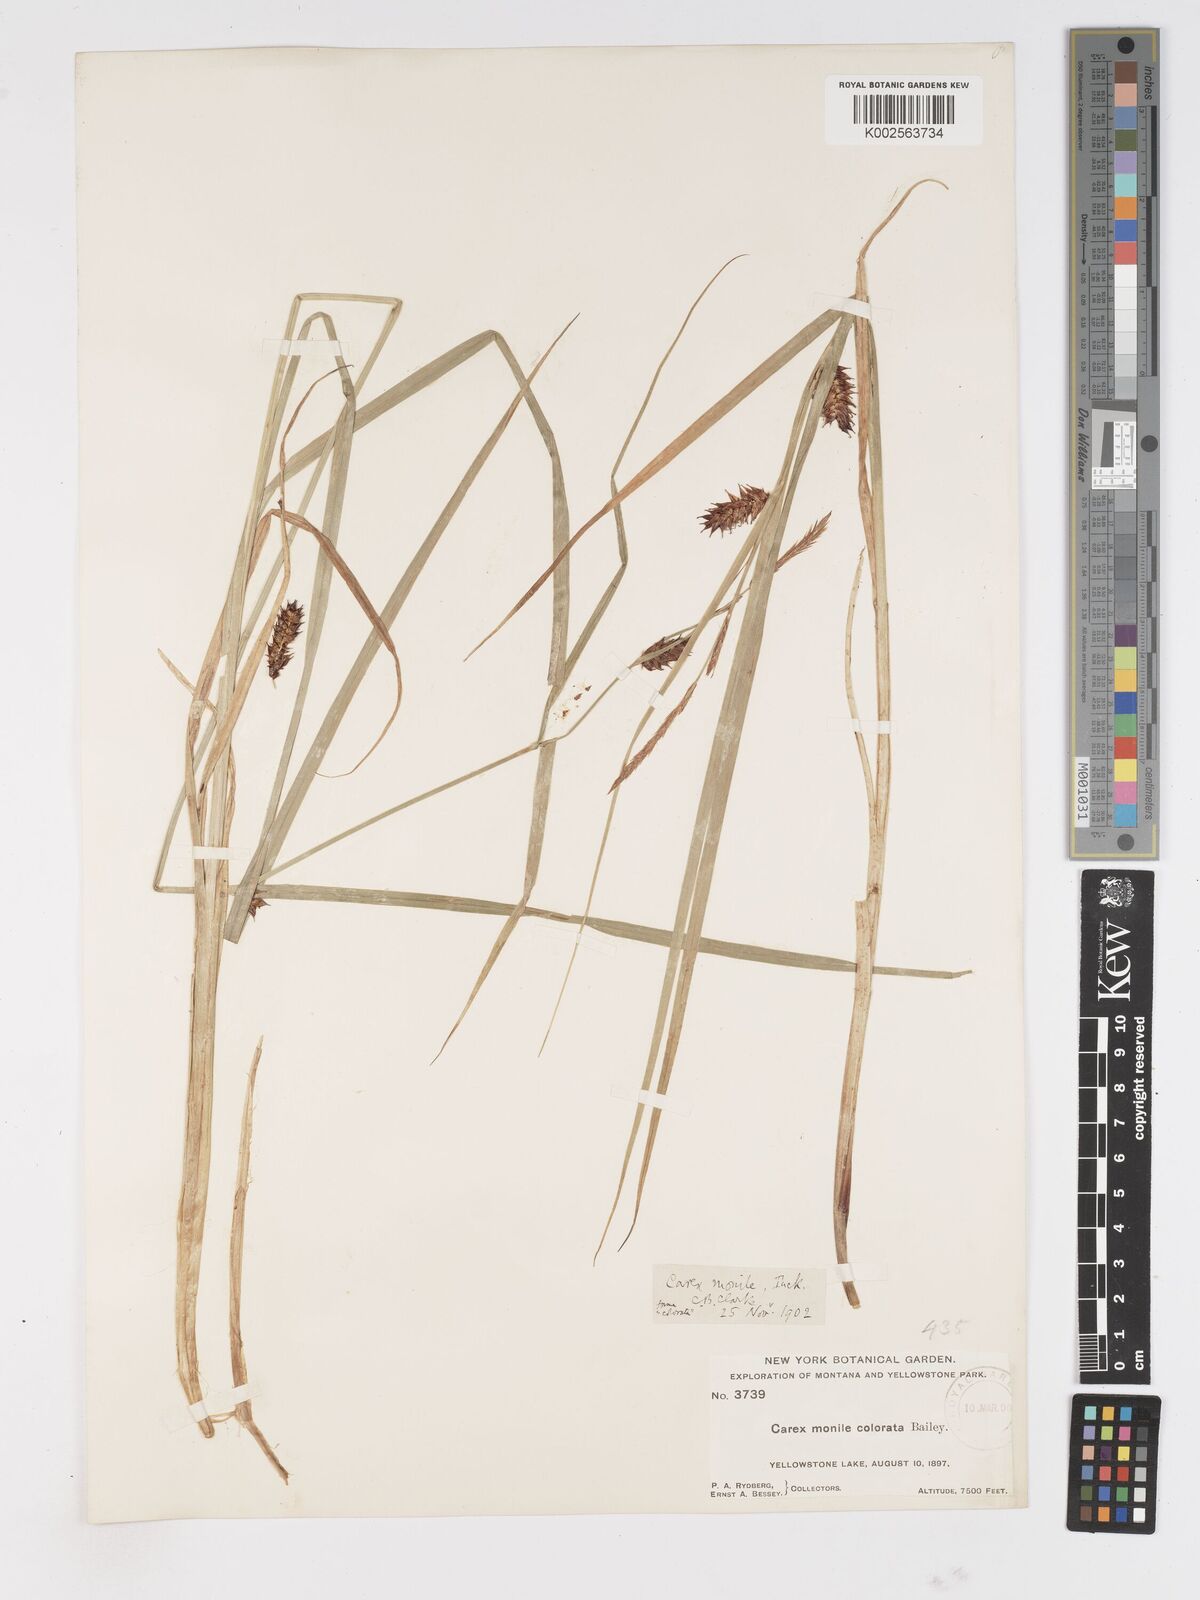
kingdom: Plantae
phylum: Tracheophyta
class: Liliopsida
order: Poales
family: Cyperaceae
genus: Carex
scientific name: Carex vesicaria
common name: Bladder-sedge
